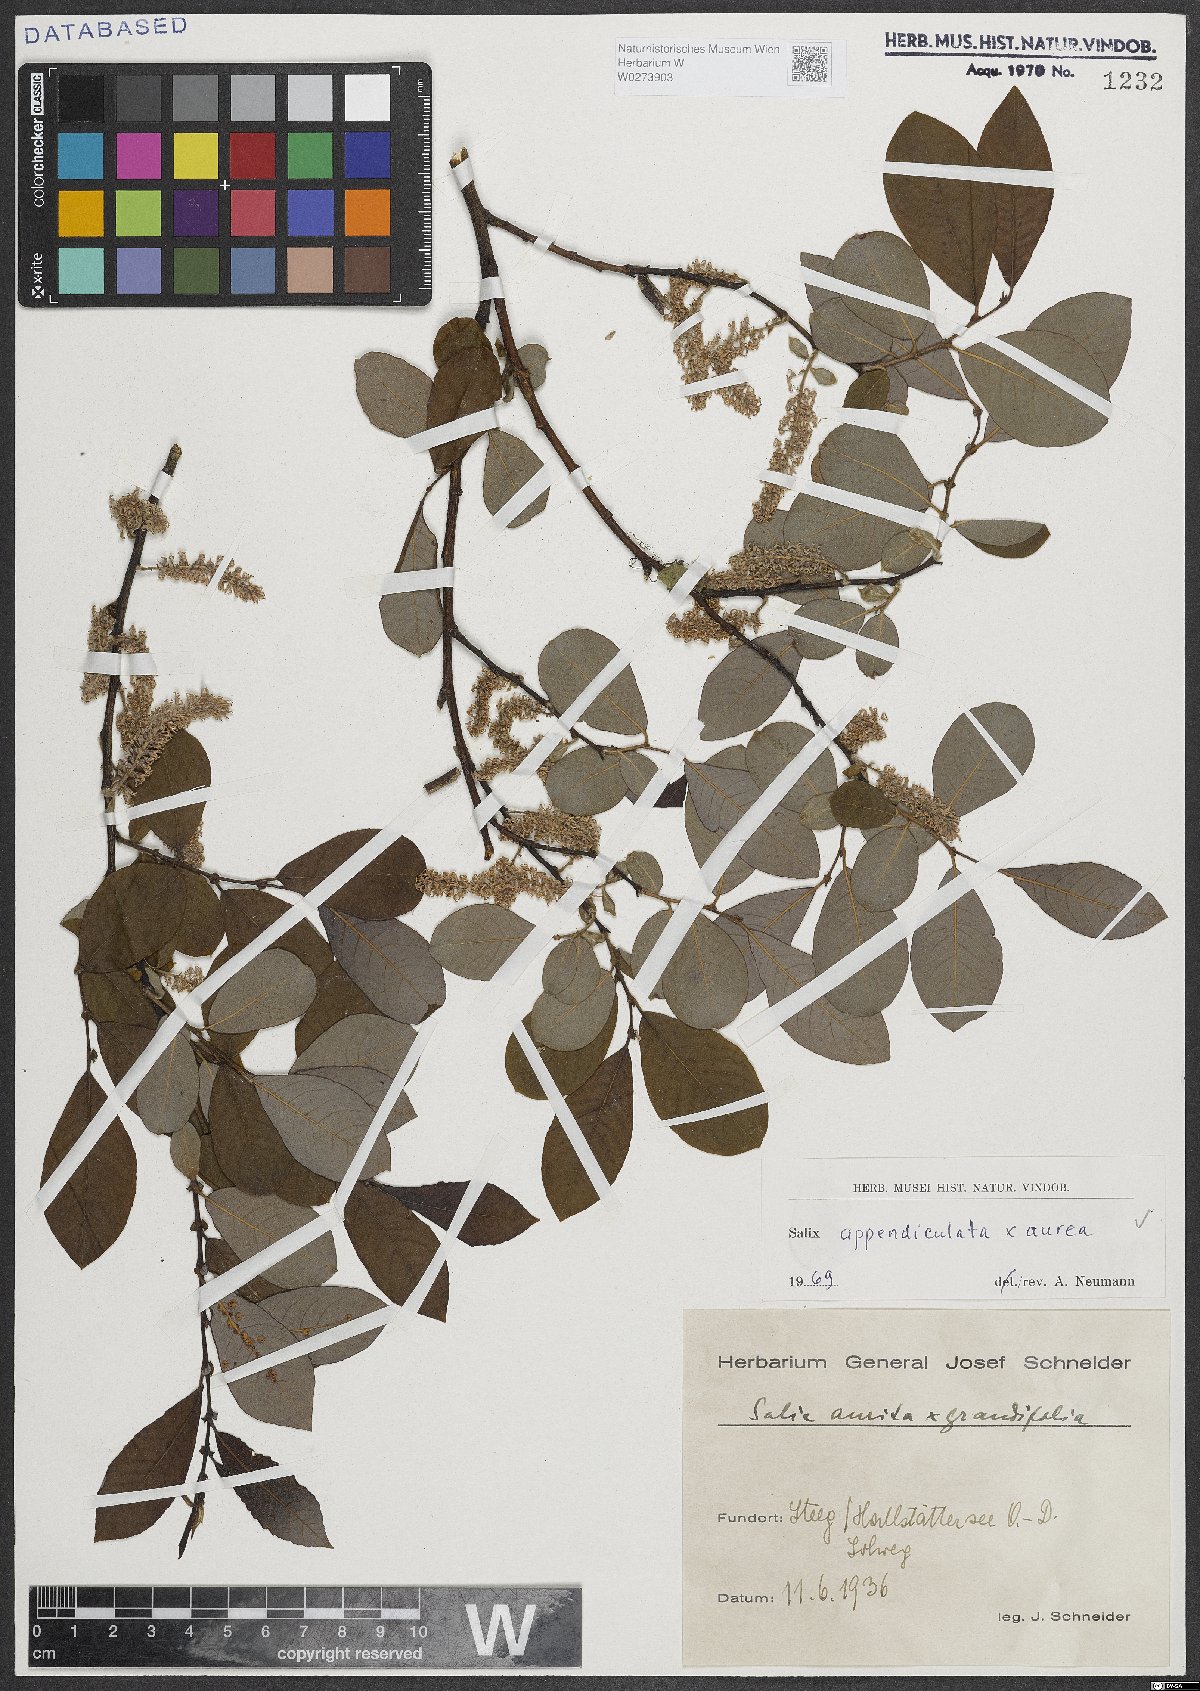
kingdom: Plantae
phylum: Tracheophyta
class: Magnoliopsida
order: Malpighiales
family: Salicaceae
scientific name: Salicaceae
